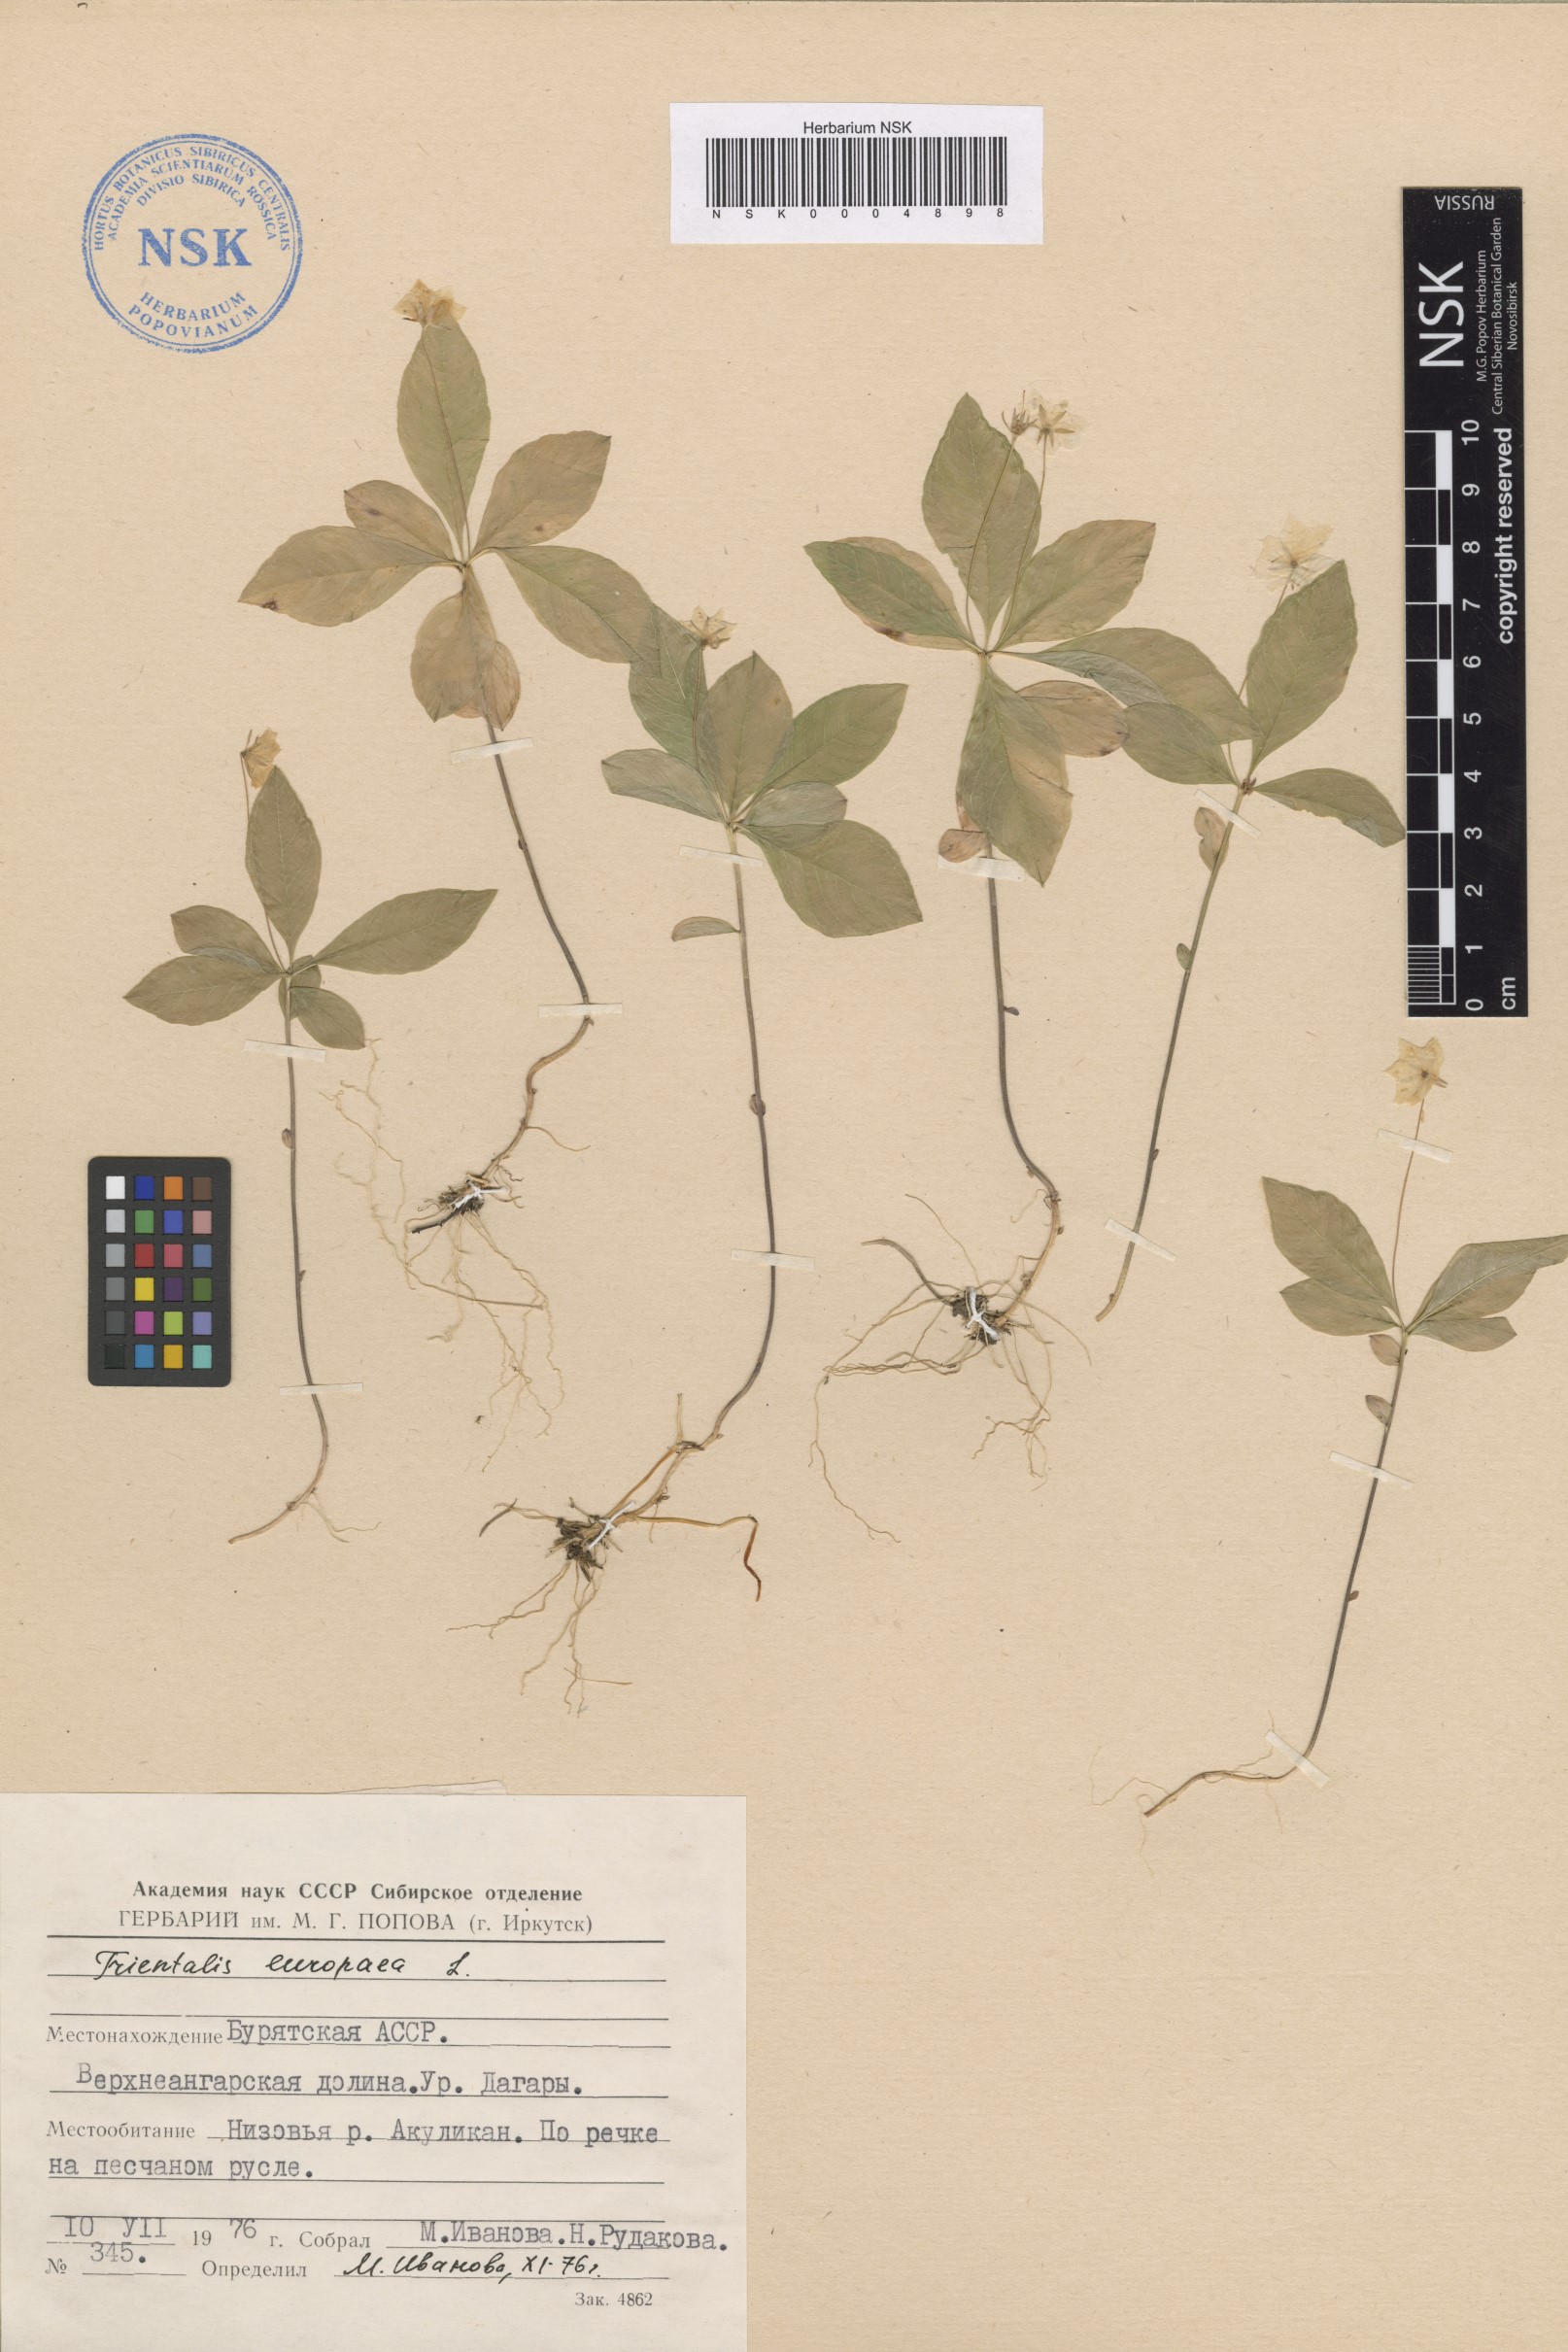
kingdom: Plantae
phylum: Tracheophyta
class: Magnoliopsida
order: Ericales
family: Primulaceae
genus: Lysimachia
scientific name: Lysimachia europaea
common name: Arctic starflower
